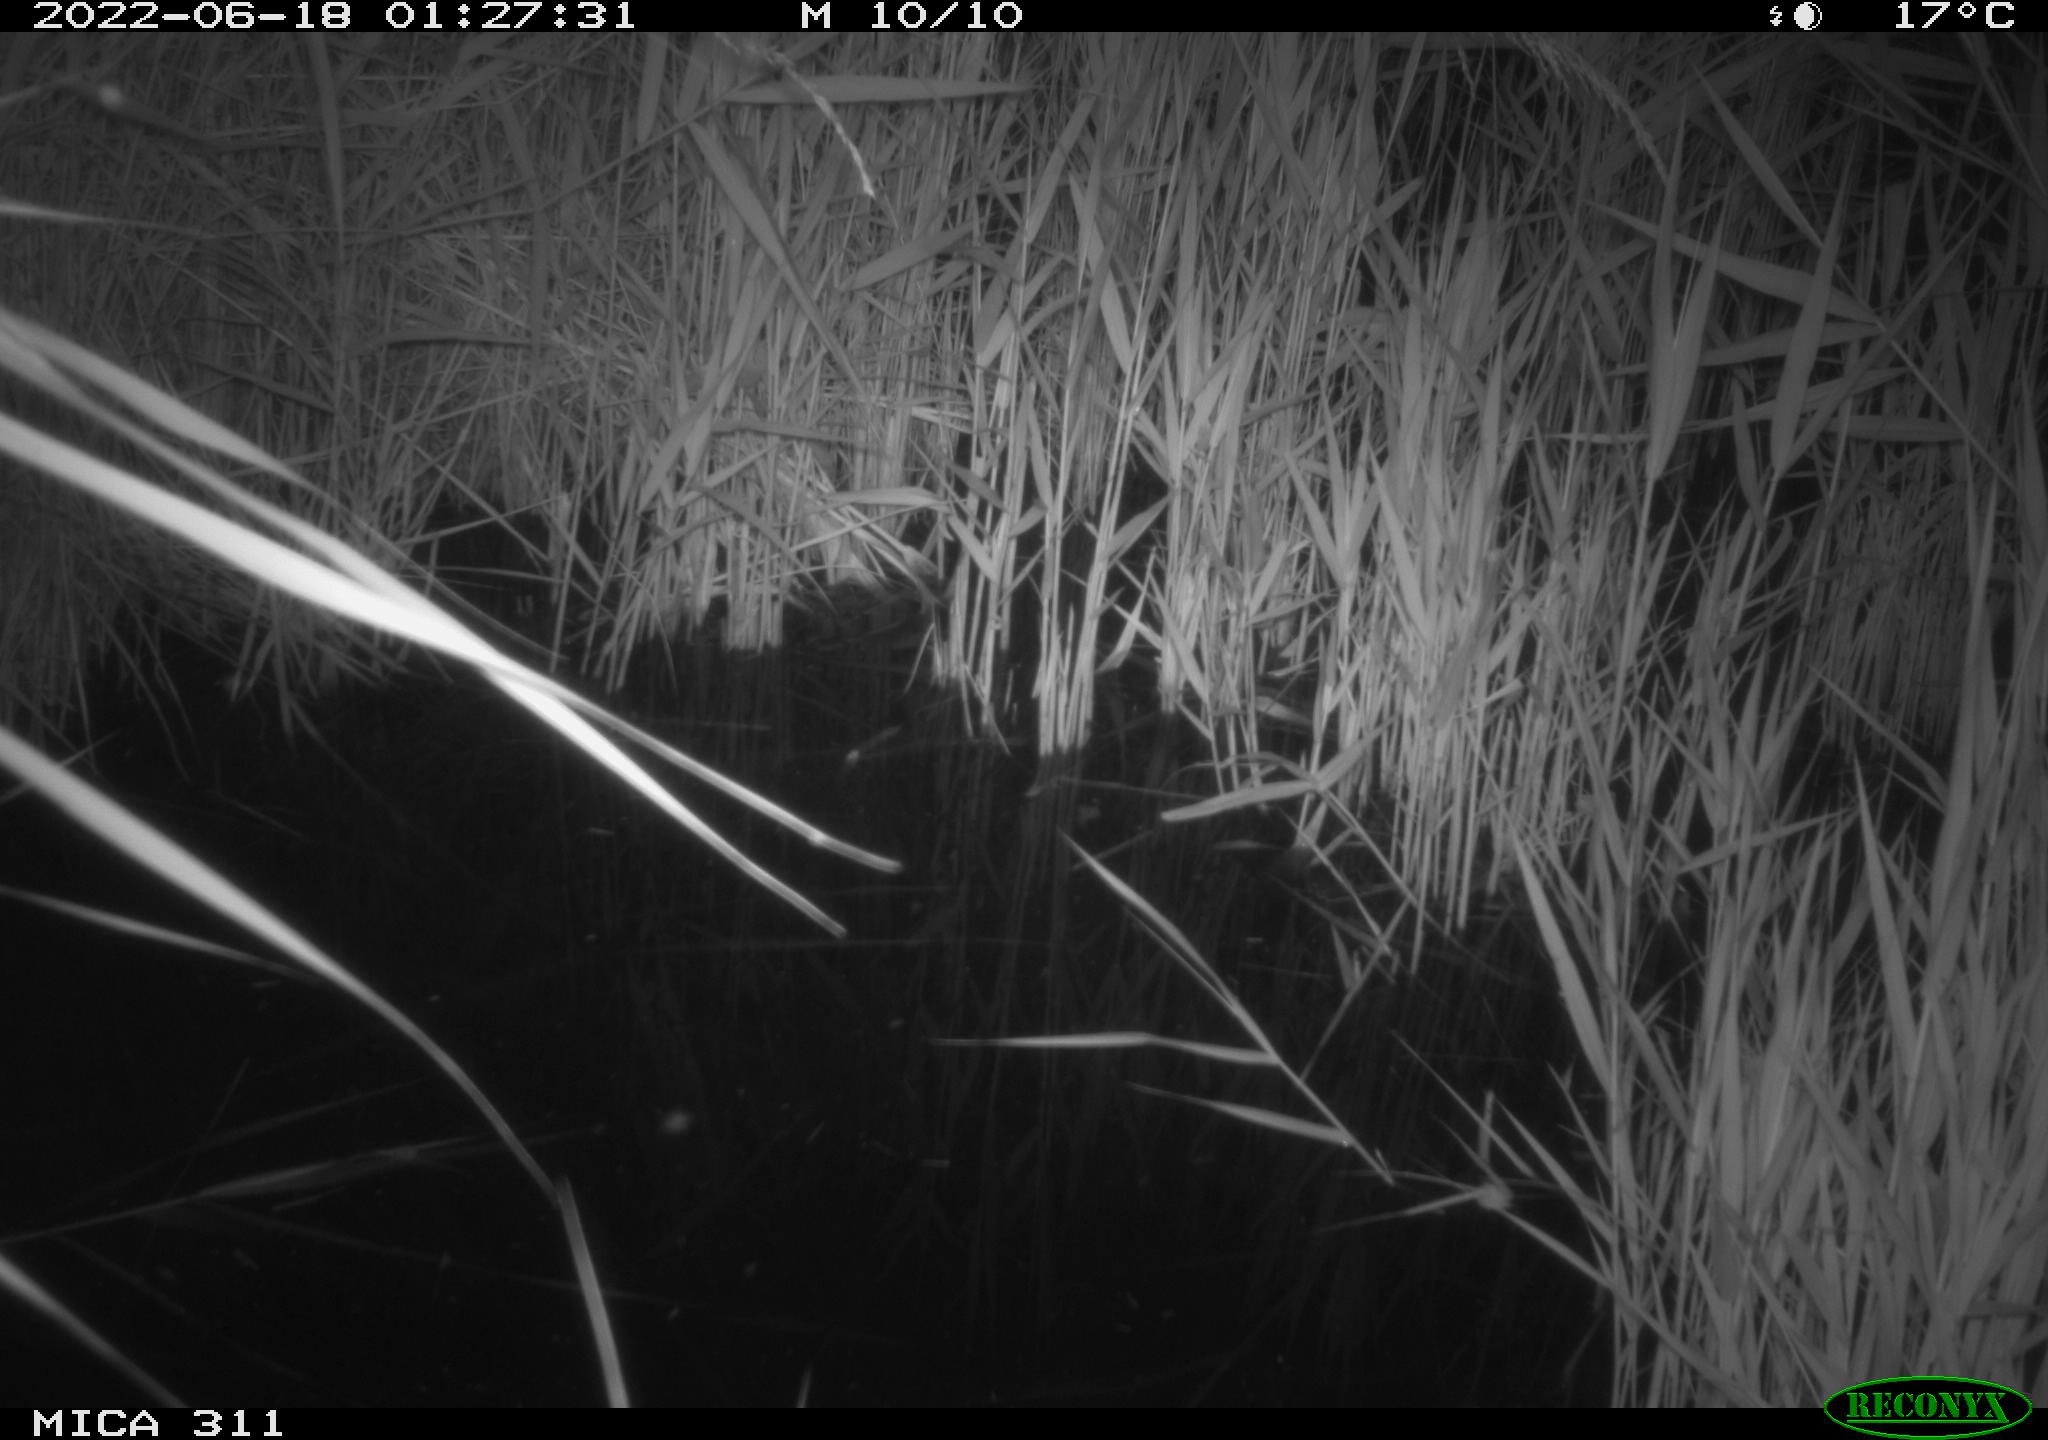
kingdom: Animalia
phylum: Chordata
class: Mammalia
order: Rodentia
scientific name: Rodentia
